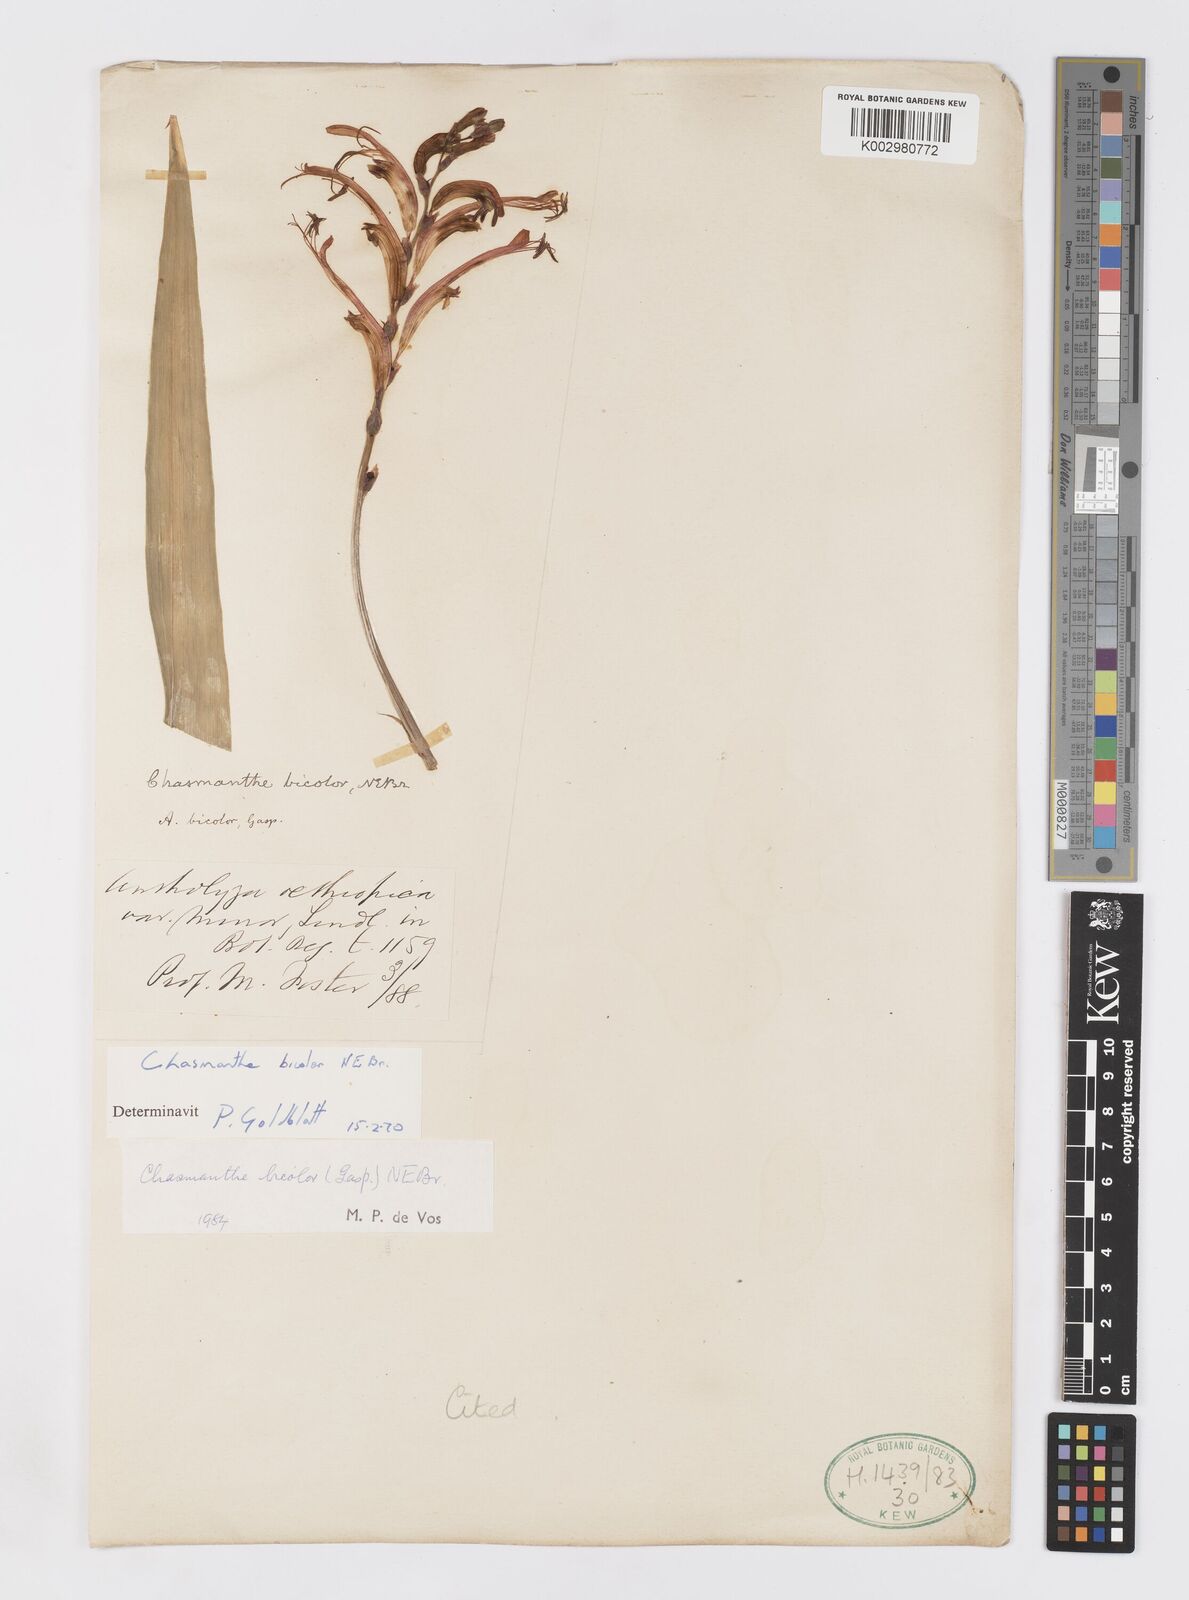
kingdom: Plantae
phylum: Tracheophyta
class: Liliopsida
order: Asparagales
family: Iridaceae
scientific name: Iridaceae
